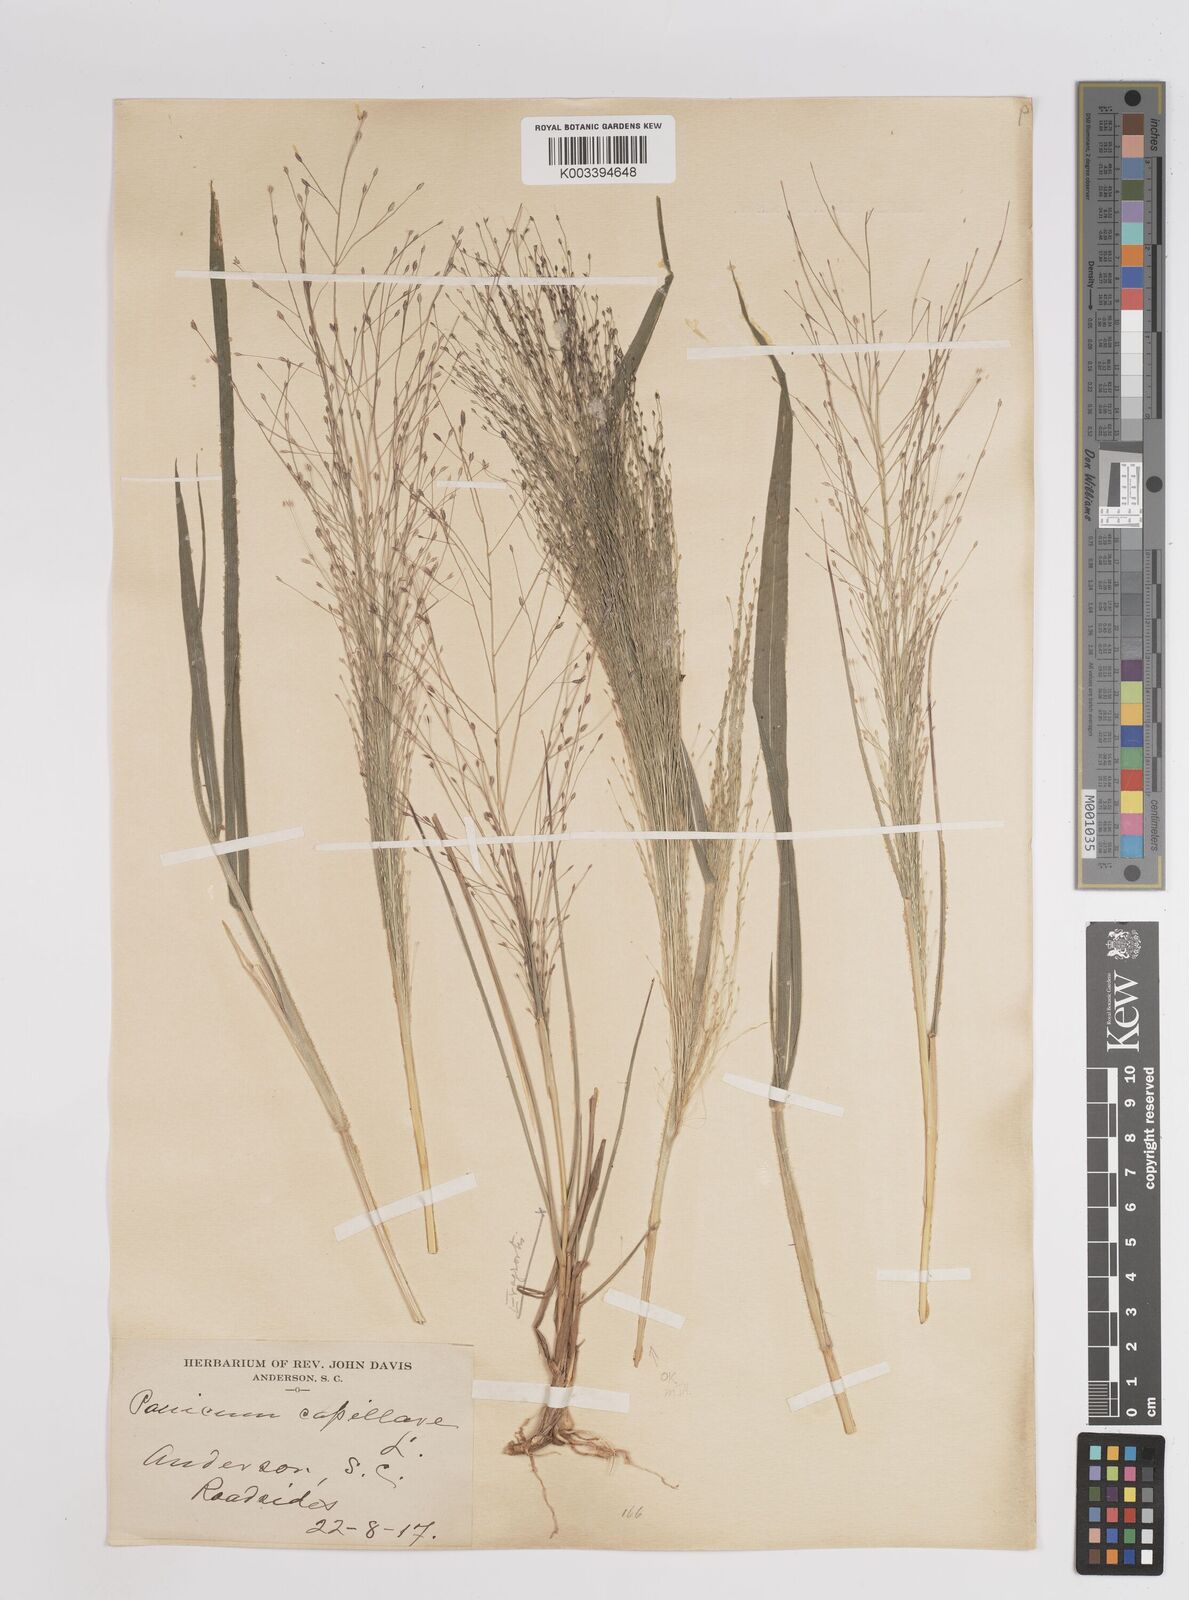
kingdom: Plantae
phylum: Tracheophyta
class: Liliopsida
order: Poales
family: Poaceae
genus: Panicum
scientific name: Panicum capillare
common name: Witch-grass
